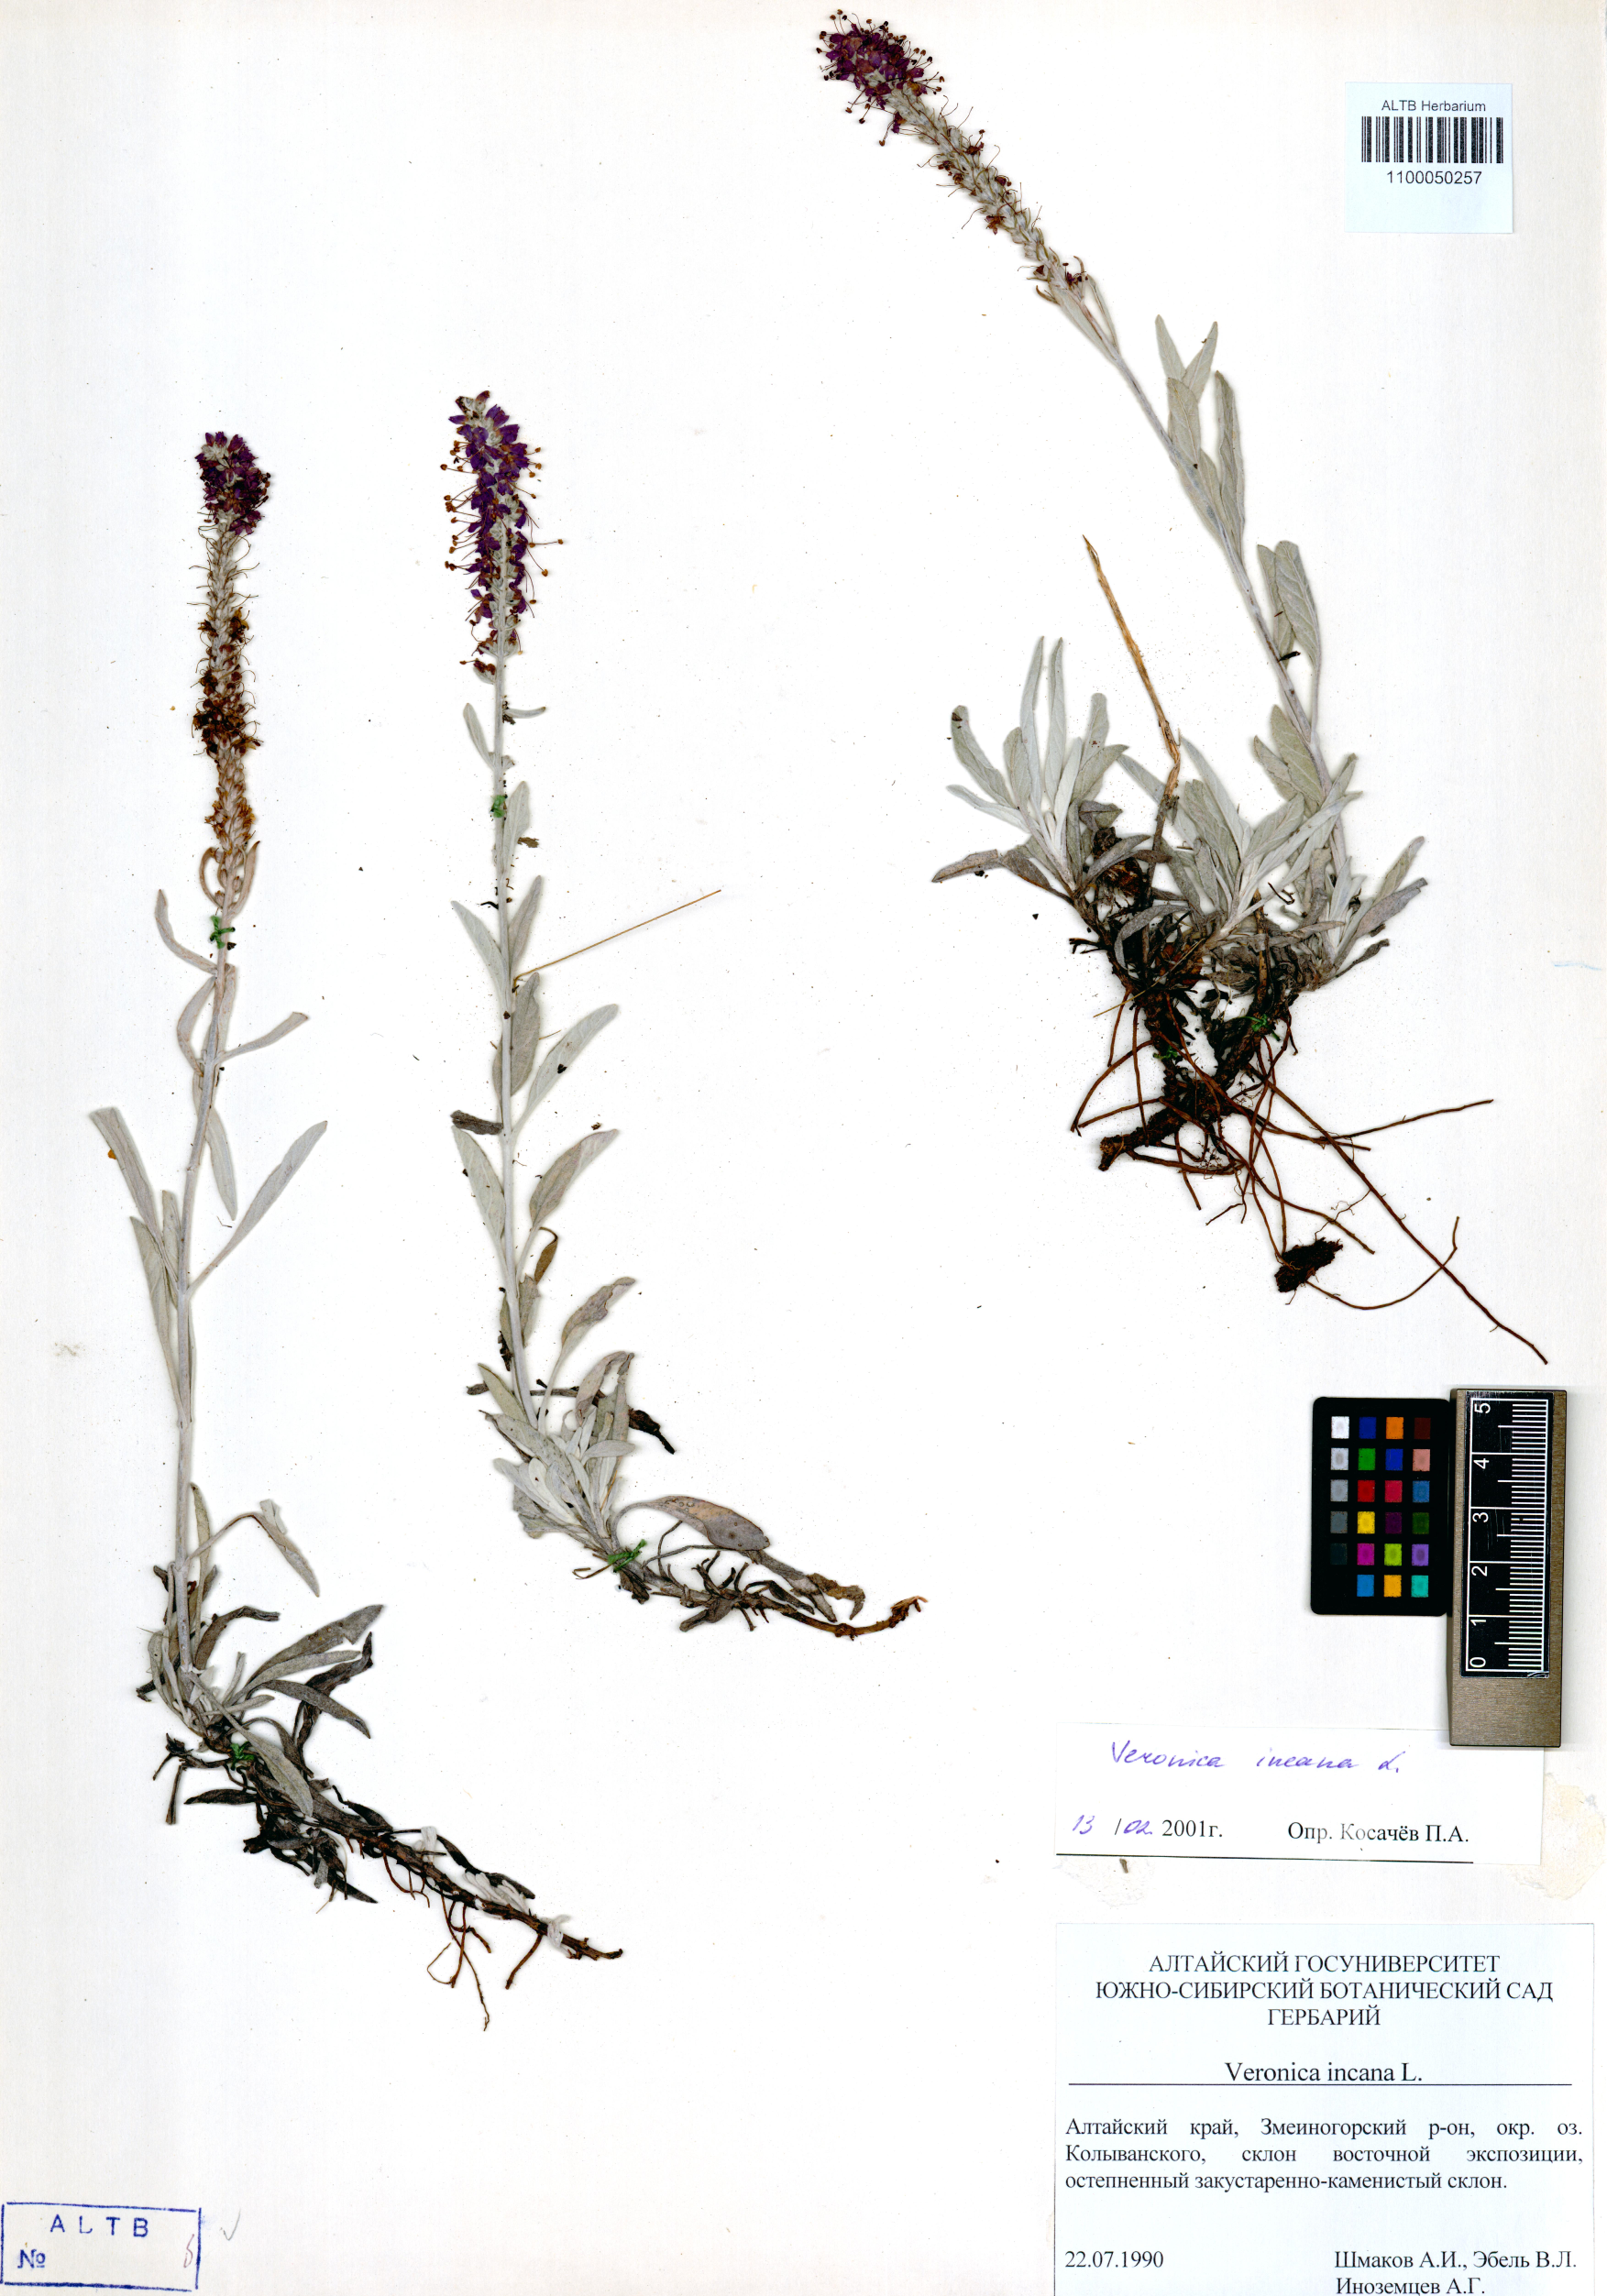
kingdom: Plantae
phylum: Tracheophyta
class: Magnoliopsida
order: Lamiales
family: Plantaginaceae
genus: Veronica
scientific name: Veronica incana
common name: Silver speedwell
